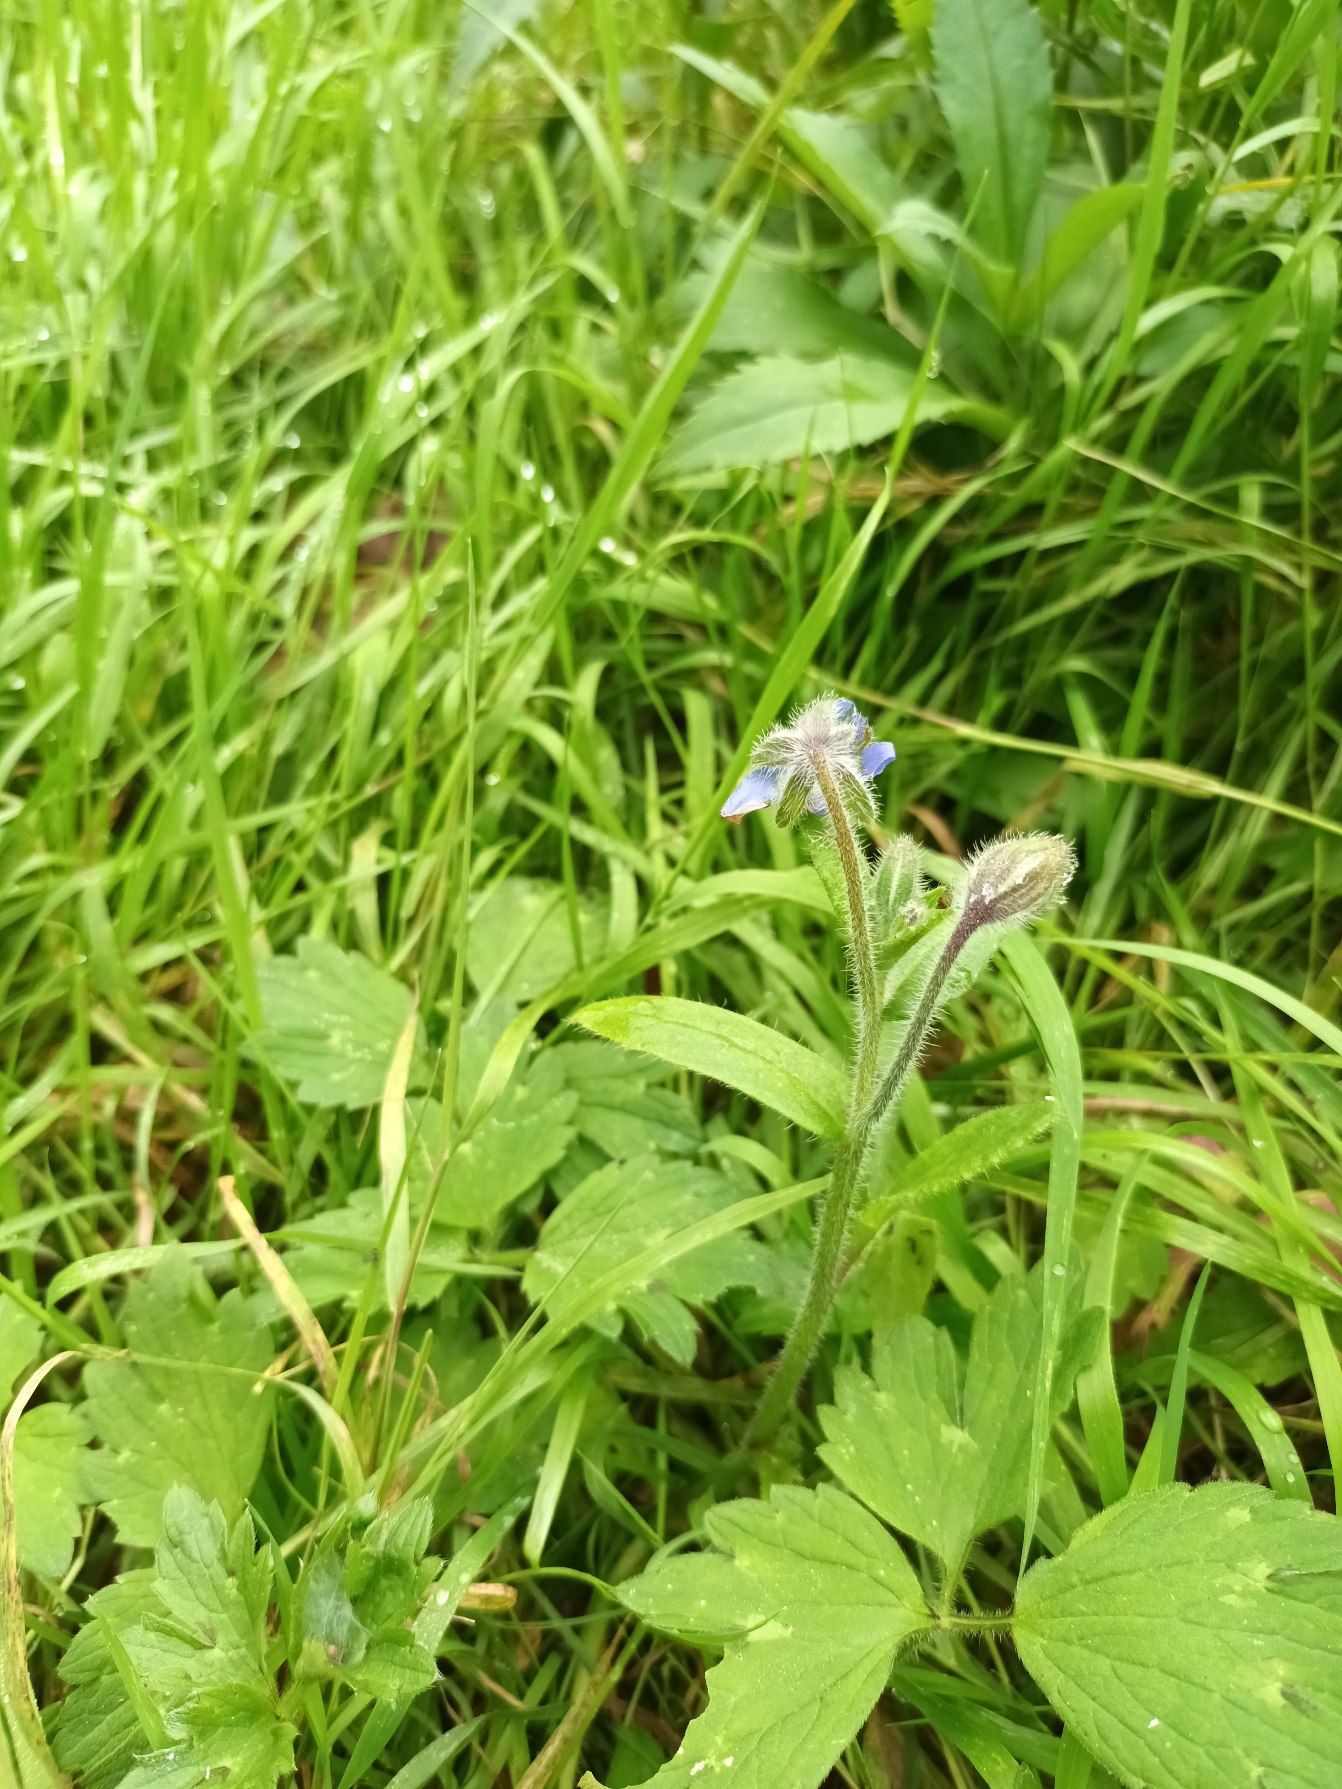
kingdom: Plantae
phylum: Tracheophyta
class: Magnoliopsida
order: Boraginales
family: Boraginaceae
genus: Borago
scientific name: Borago officinalis
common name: Hjulkrone
